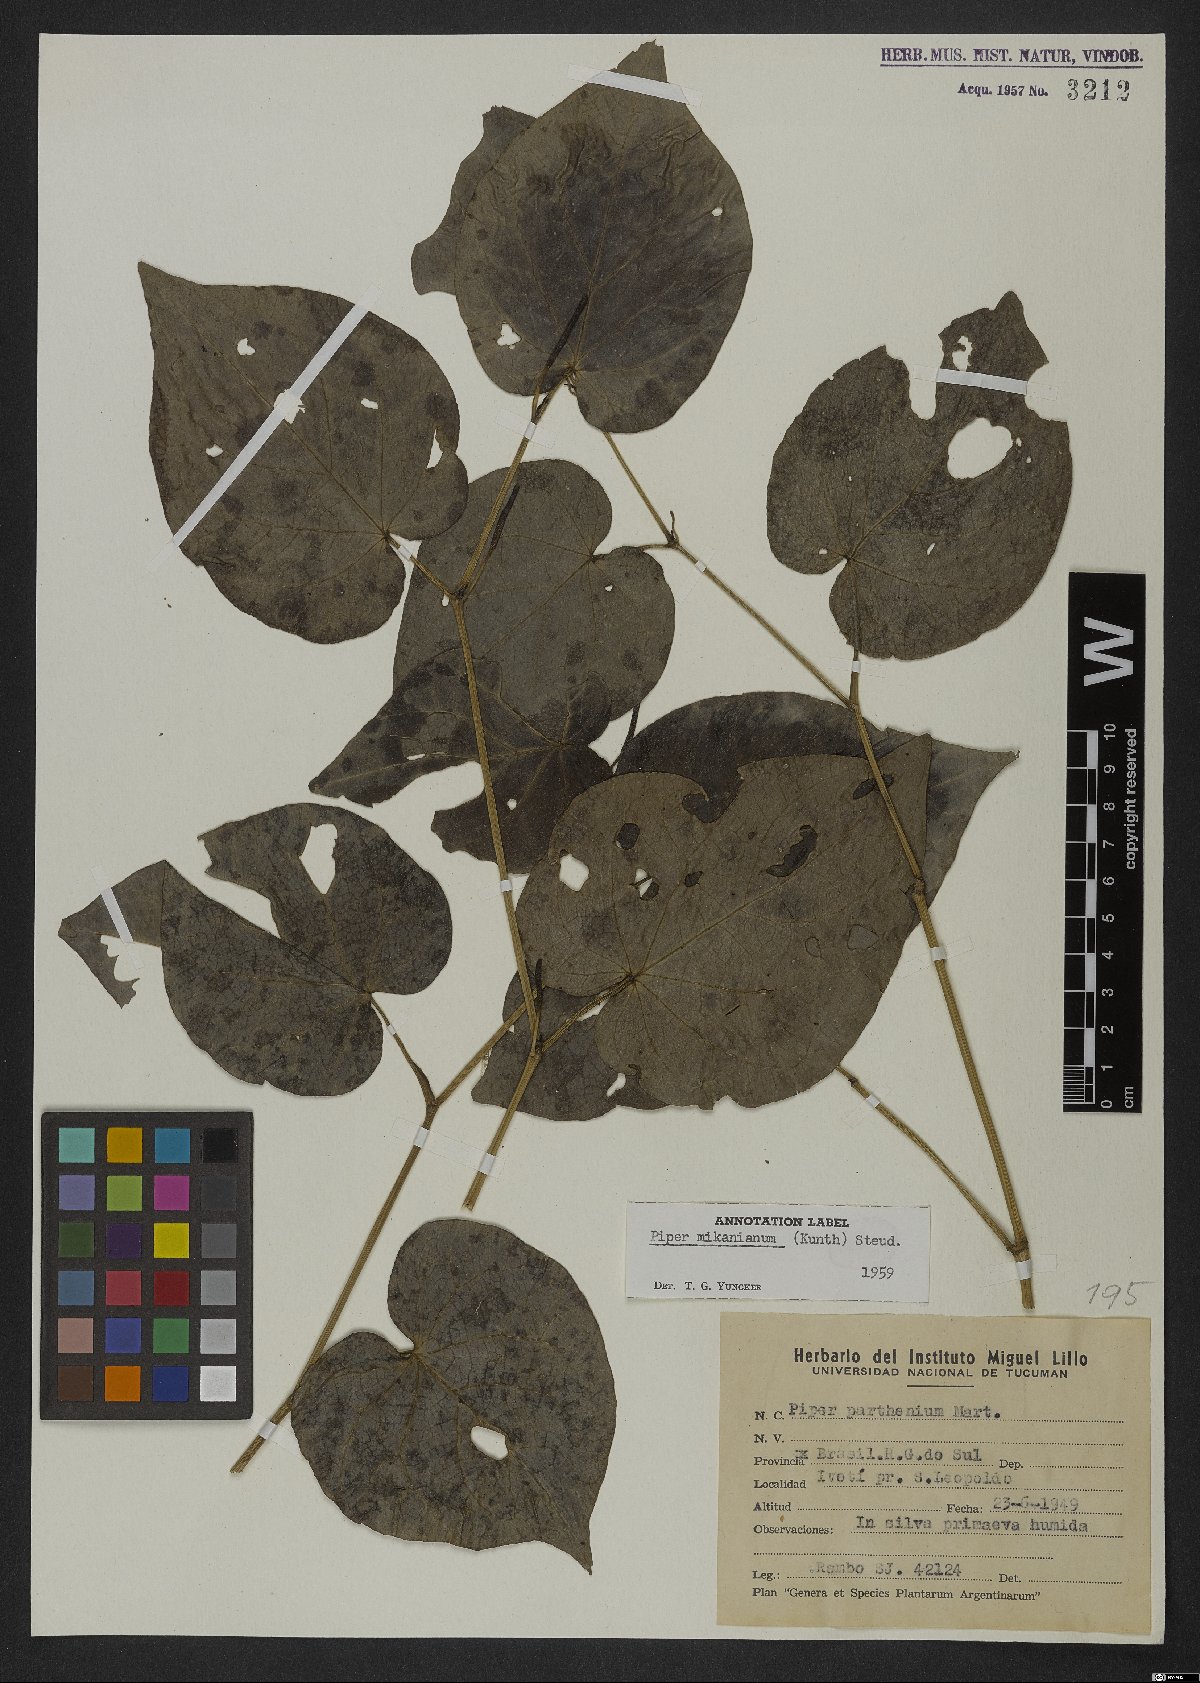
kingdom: Plantae
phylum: Tracheophyta
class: Magnoliopsida
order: Piperales
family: Piperaceae
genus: Piper
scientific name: Piper mikanianum
